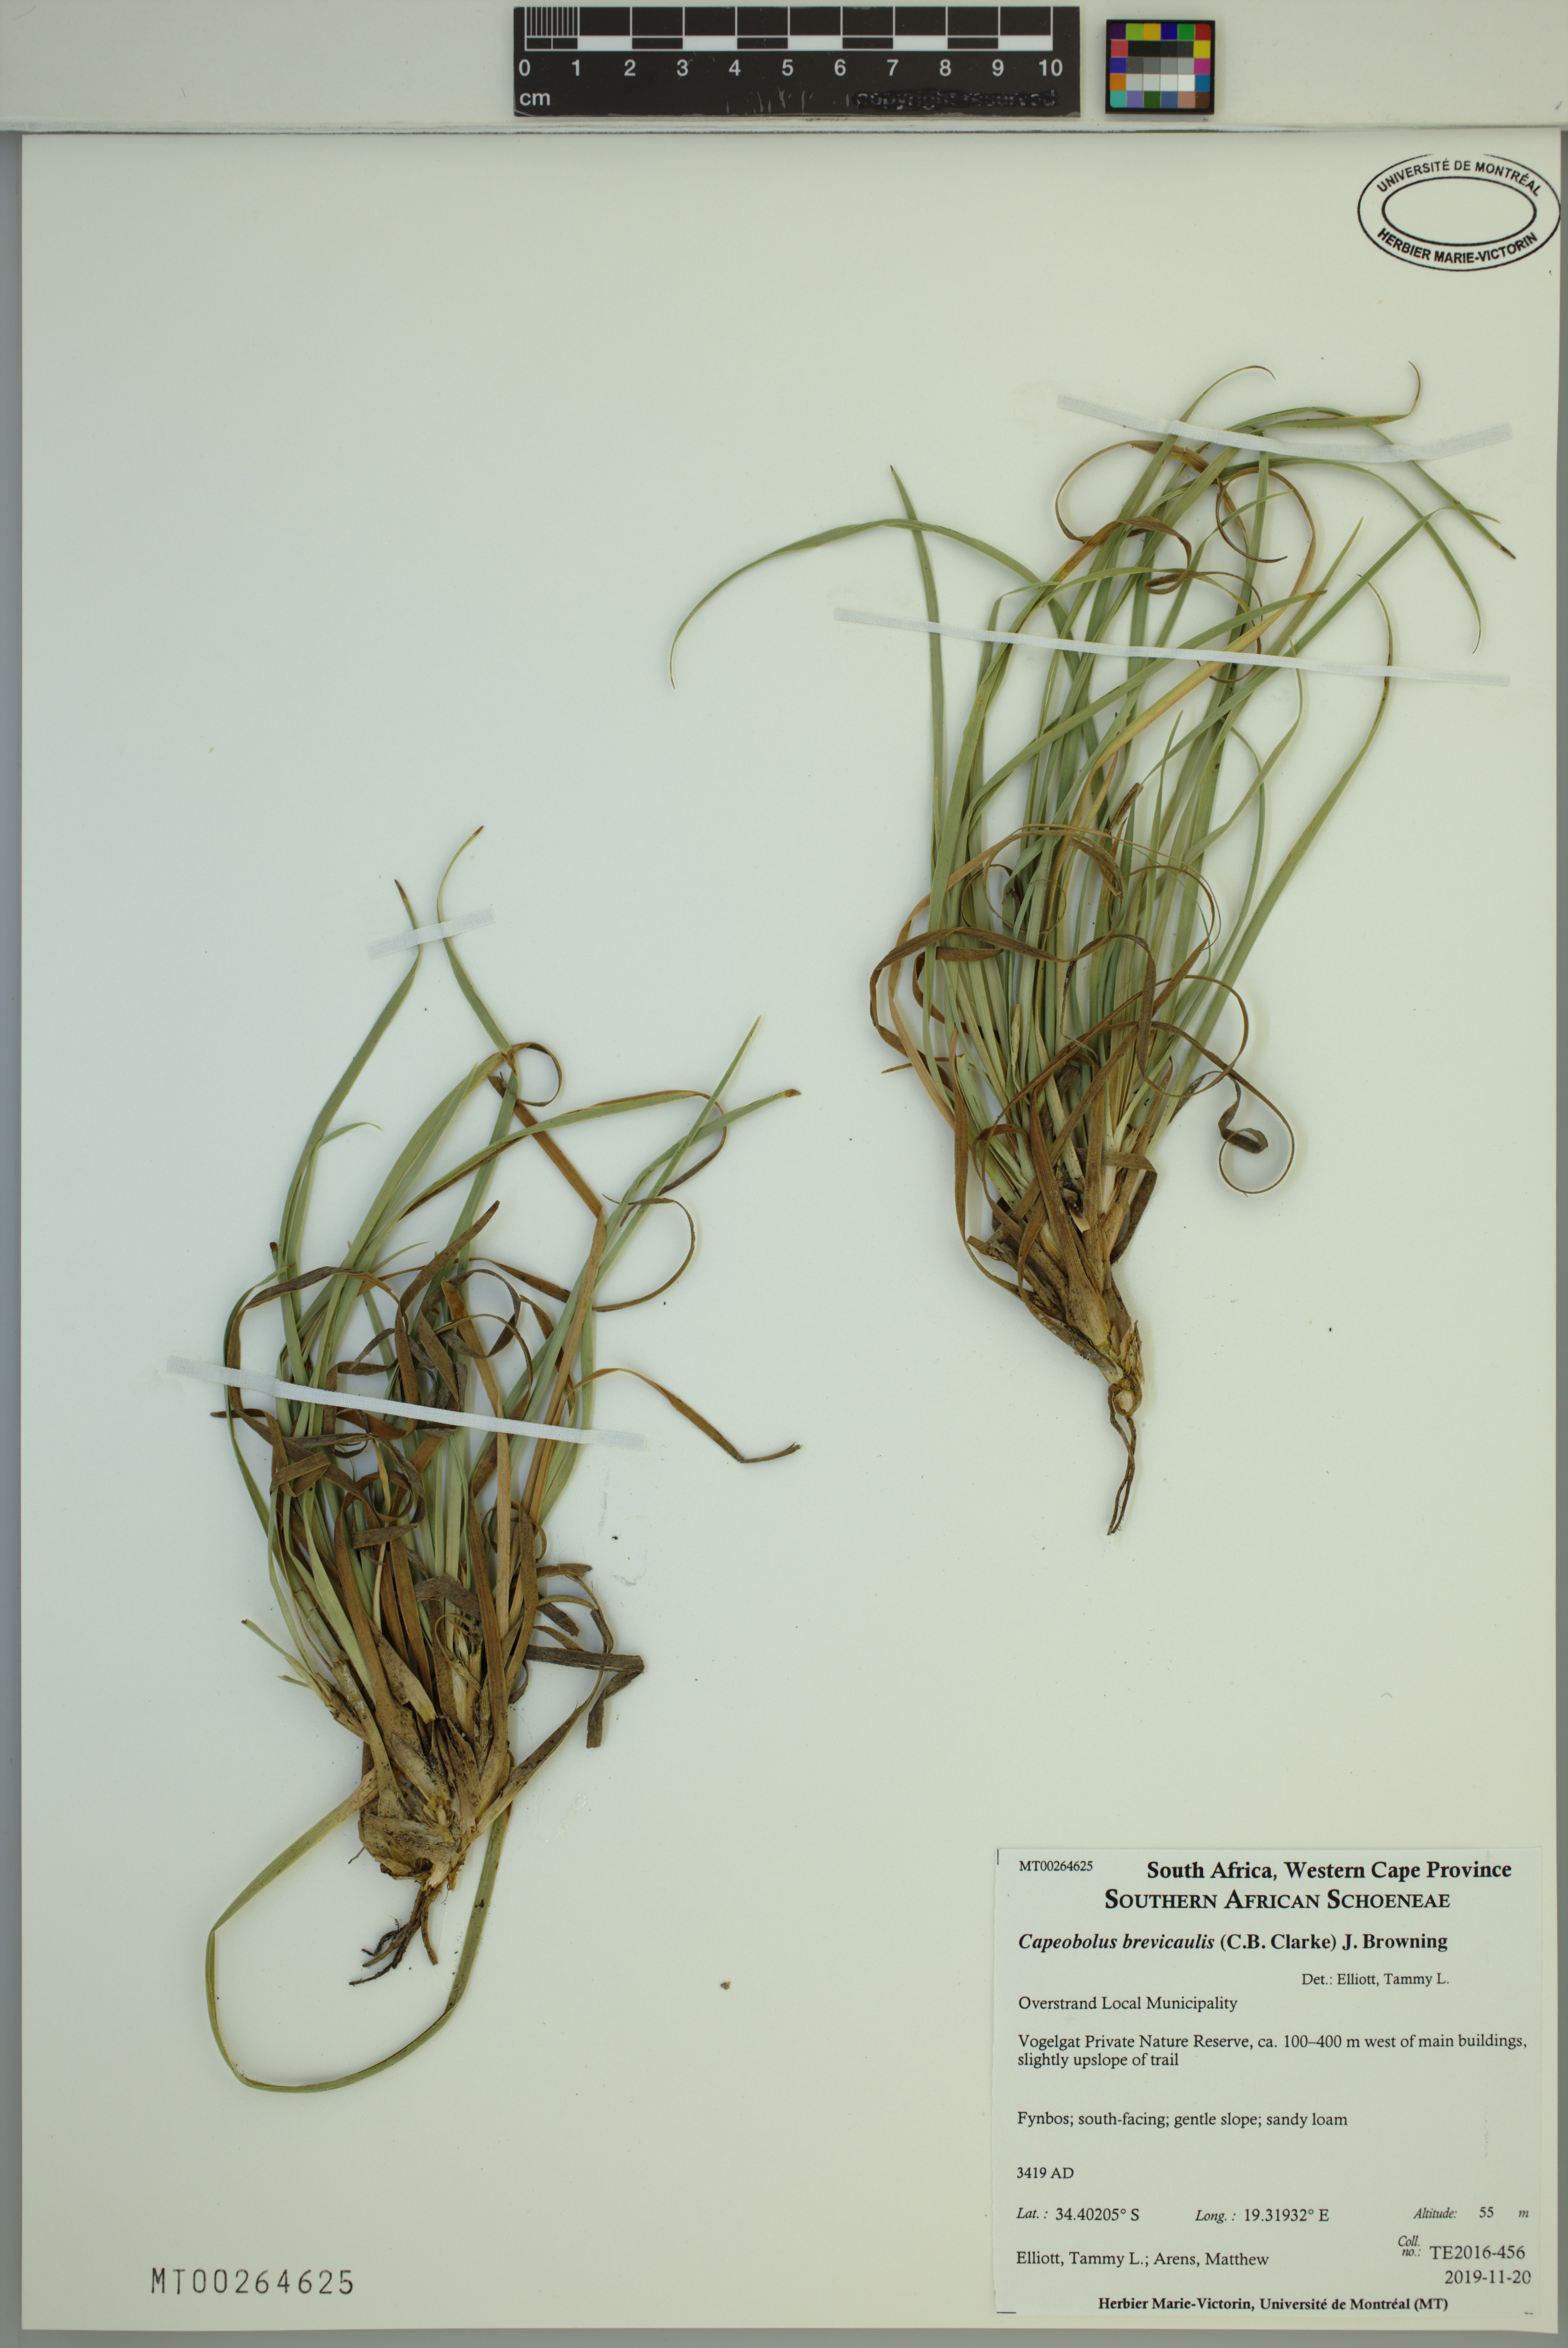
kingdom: Plantae
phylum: Tracheophyta
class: Liliopsida
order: Poales
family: Cyperaceae
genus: Capeobolus
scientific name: Capeobolus brevicaulis
